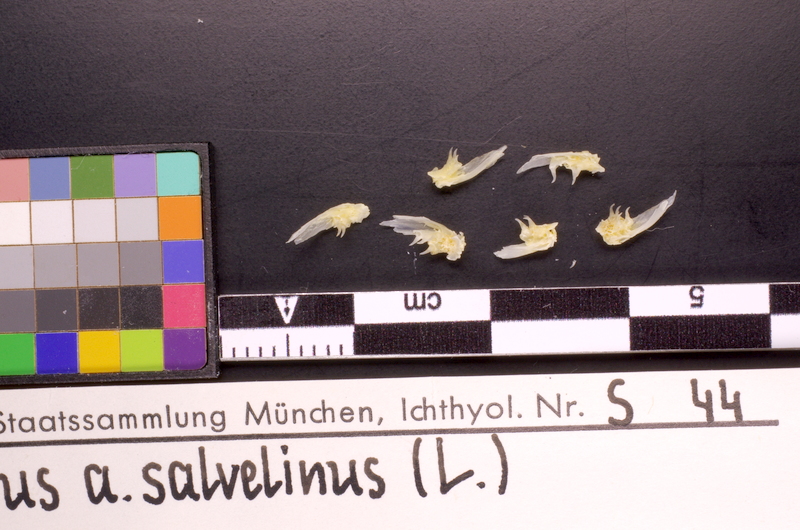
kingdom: Animalia
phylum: Chordata
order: Salmoniformes
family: Salmonidae
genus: Salvelinus
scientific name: Salvelinus umbla
